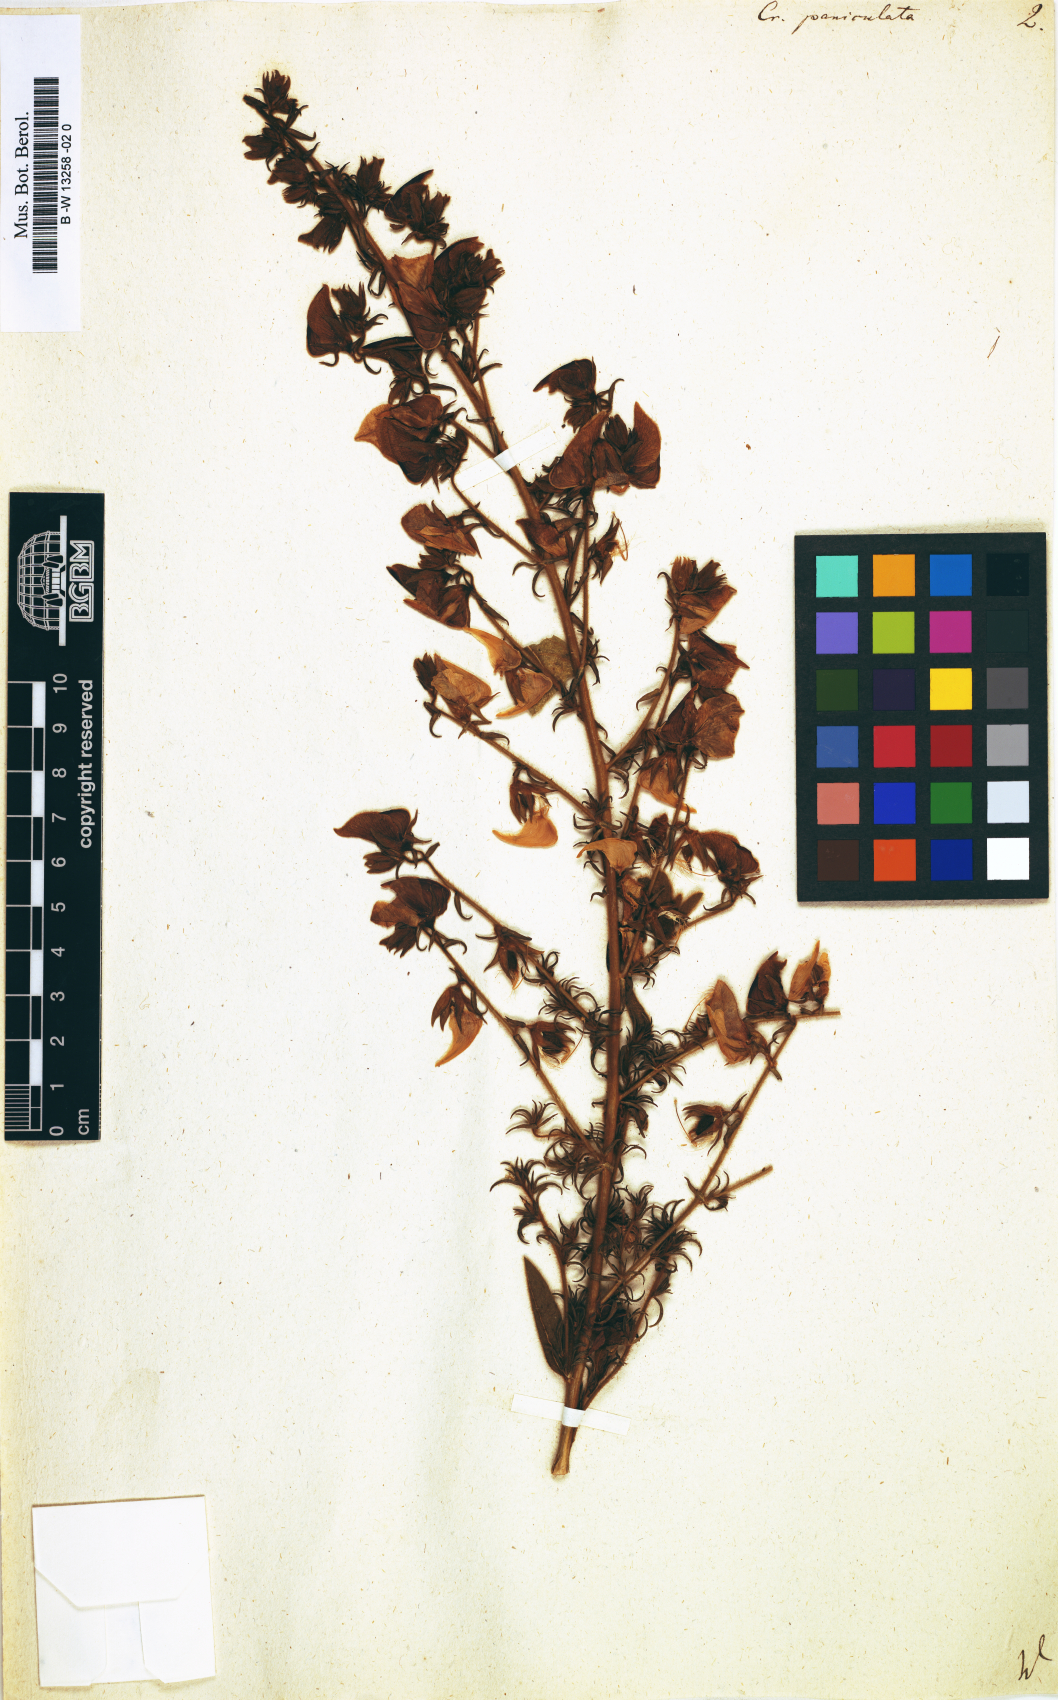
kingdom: Plantae
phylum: Tracheophyta
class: Magnoliopsida
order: Fabales
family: Fabaceae
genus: Crotalaria
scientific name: Crotalaria senegalensis
